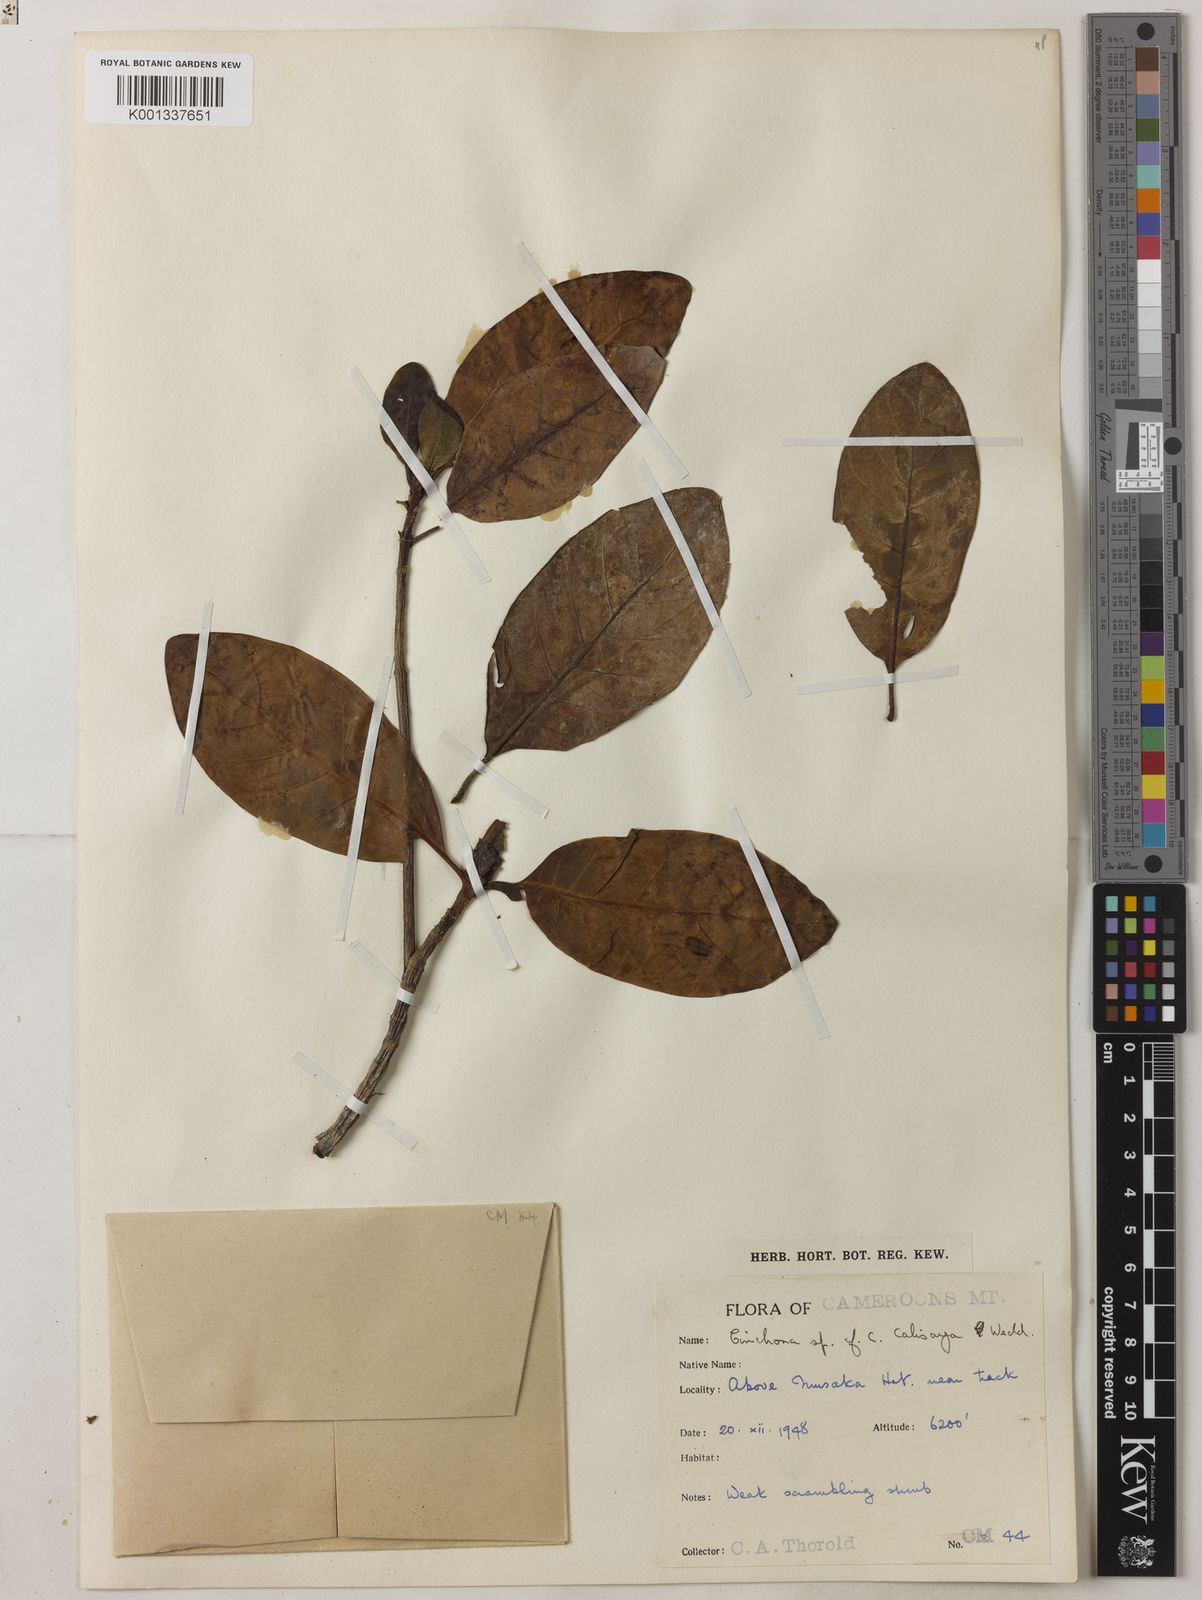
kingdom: Plantae
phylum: Tracheophyta
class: Magnoliopsida
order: Gentianales
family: Rubiaceae
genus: Cinchona
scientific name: Cinchona calisaya
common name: Ledgerbark
